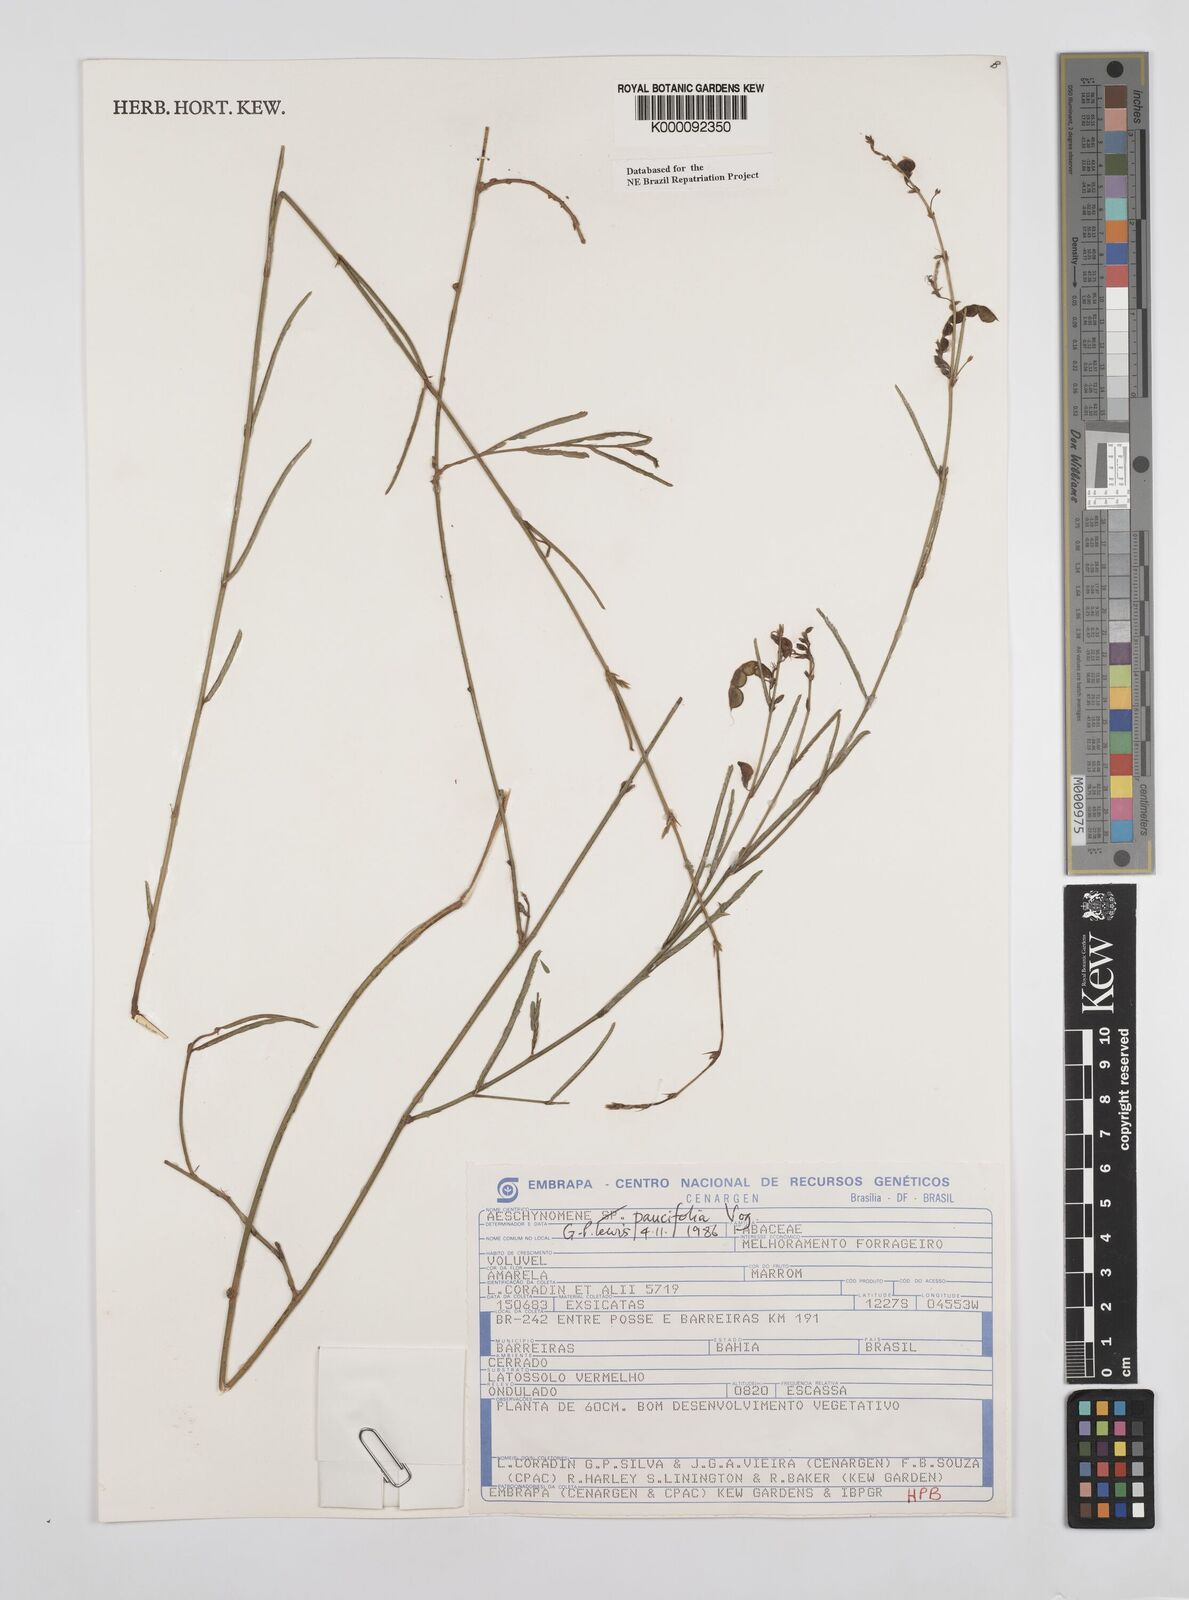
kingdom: Plantae
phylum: Tracheophyta
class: Magnoliopsida
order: Fabales
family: Fabaceae
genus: Ctenodon
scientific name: Ctenodon paucifolius
